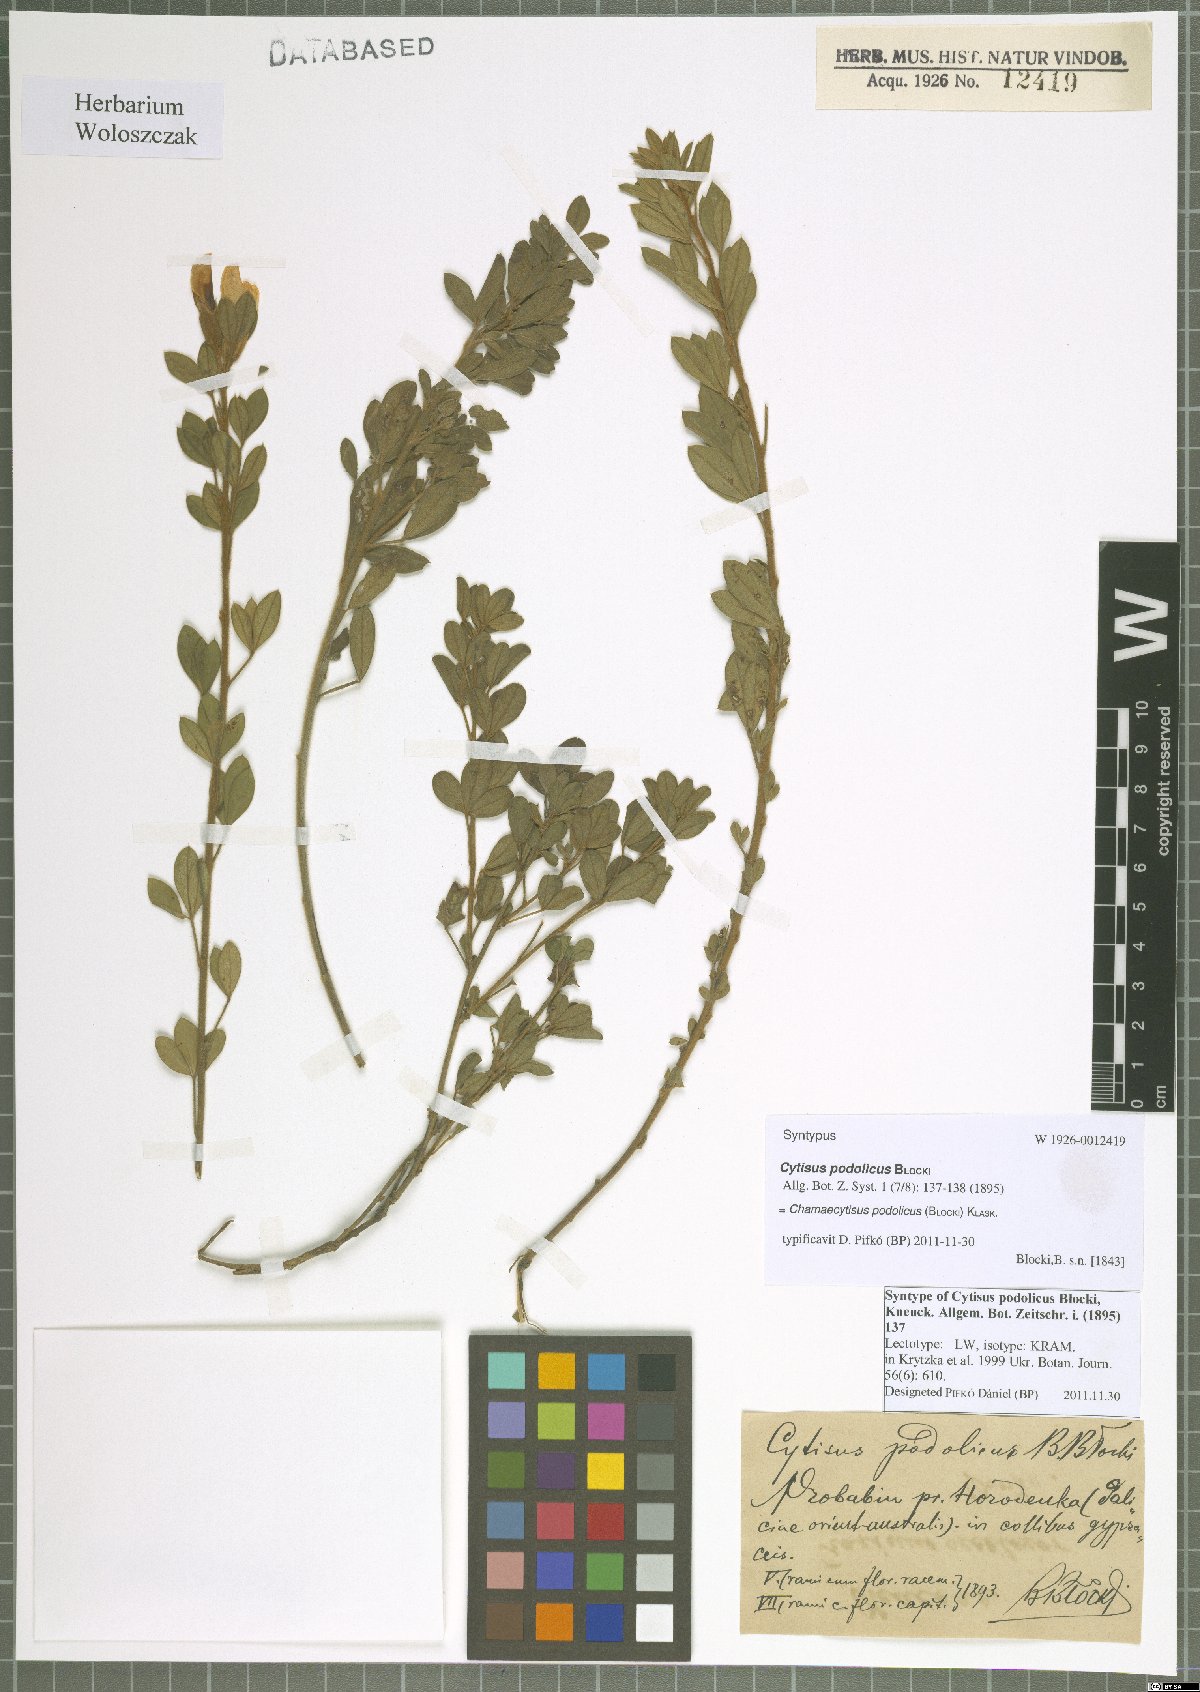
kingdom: Plantae
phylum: Tracheophyta
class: Magnoliopsida
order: Fabales
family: Fabaceae
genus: Chamaecytisus
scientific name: Chamaecytisus podolicus
